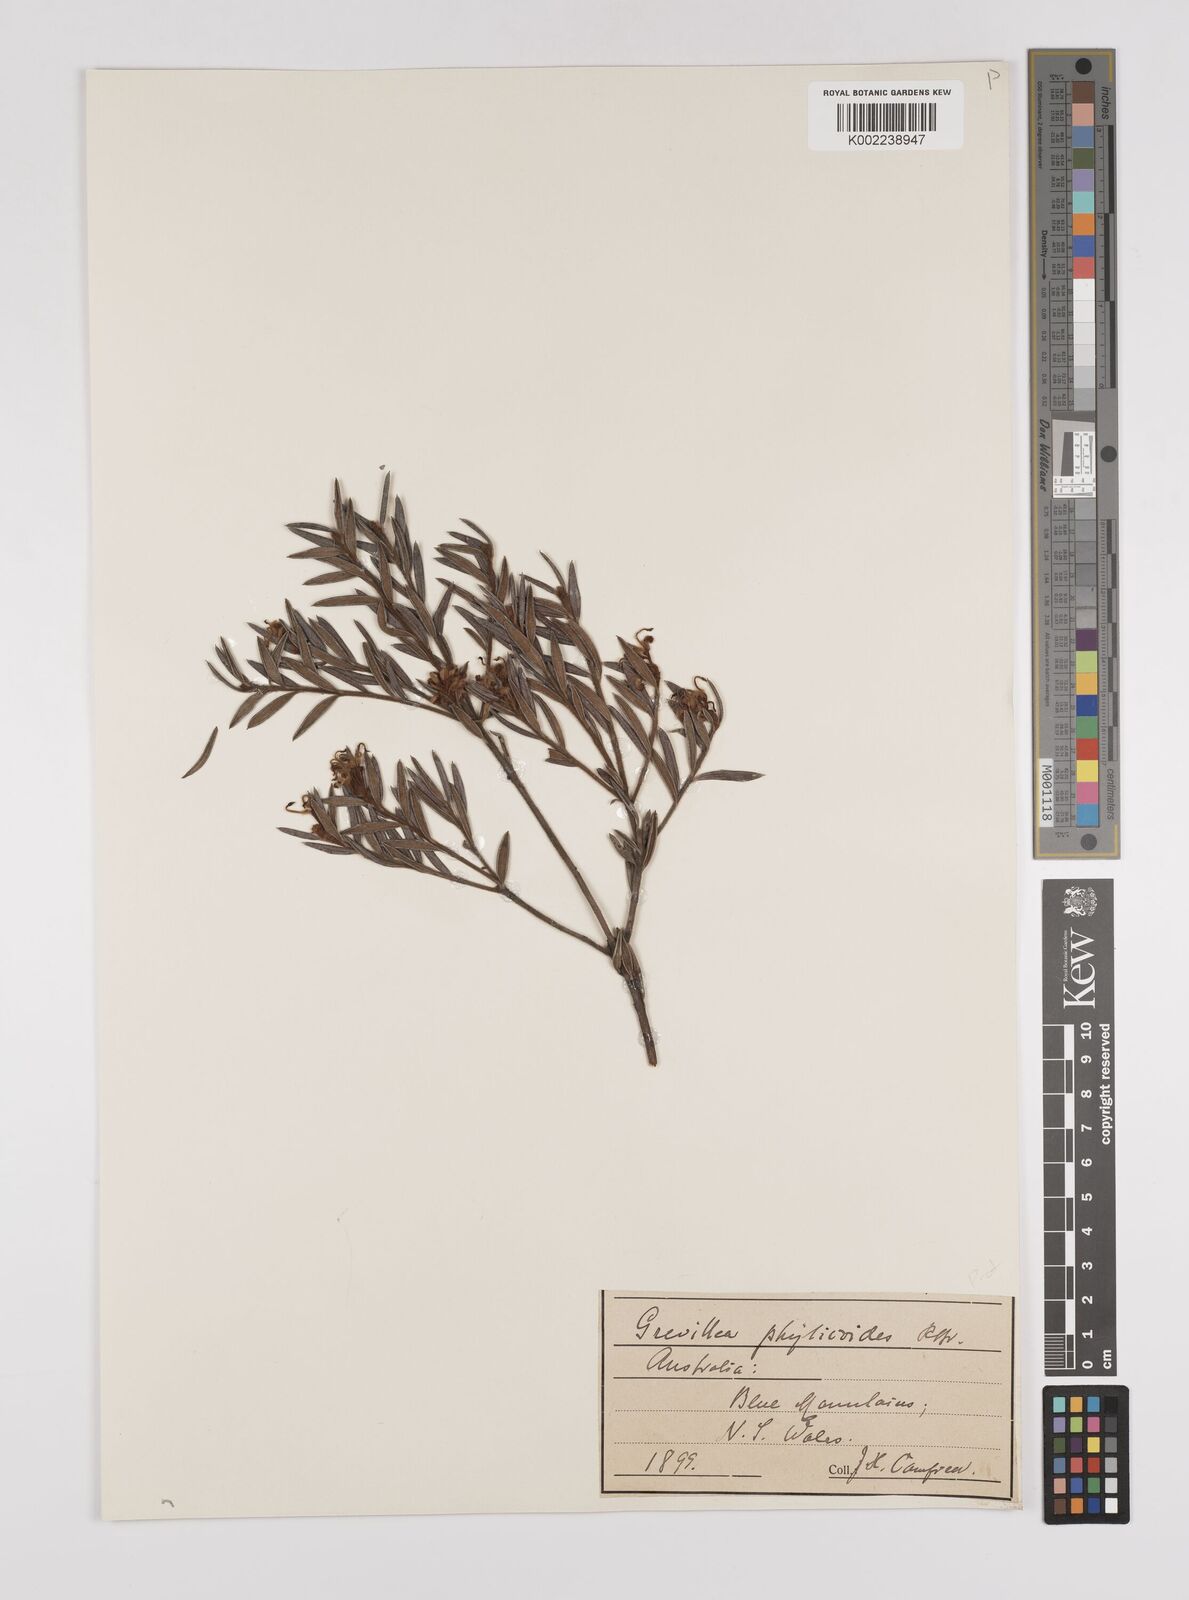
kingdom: Plantae
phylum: Tracheophyta
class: Magnoliopsida
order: Proteales
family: Proteaceae
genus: Grevillea
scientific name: Grevillea phylicoides
